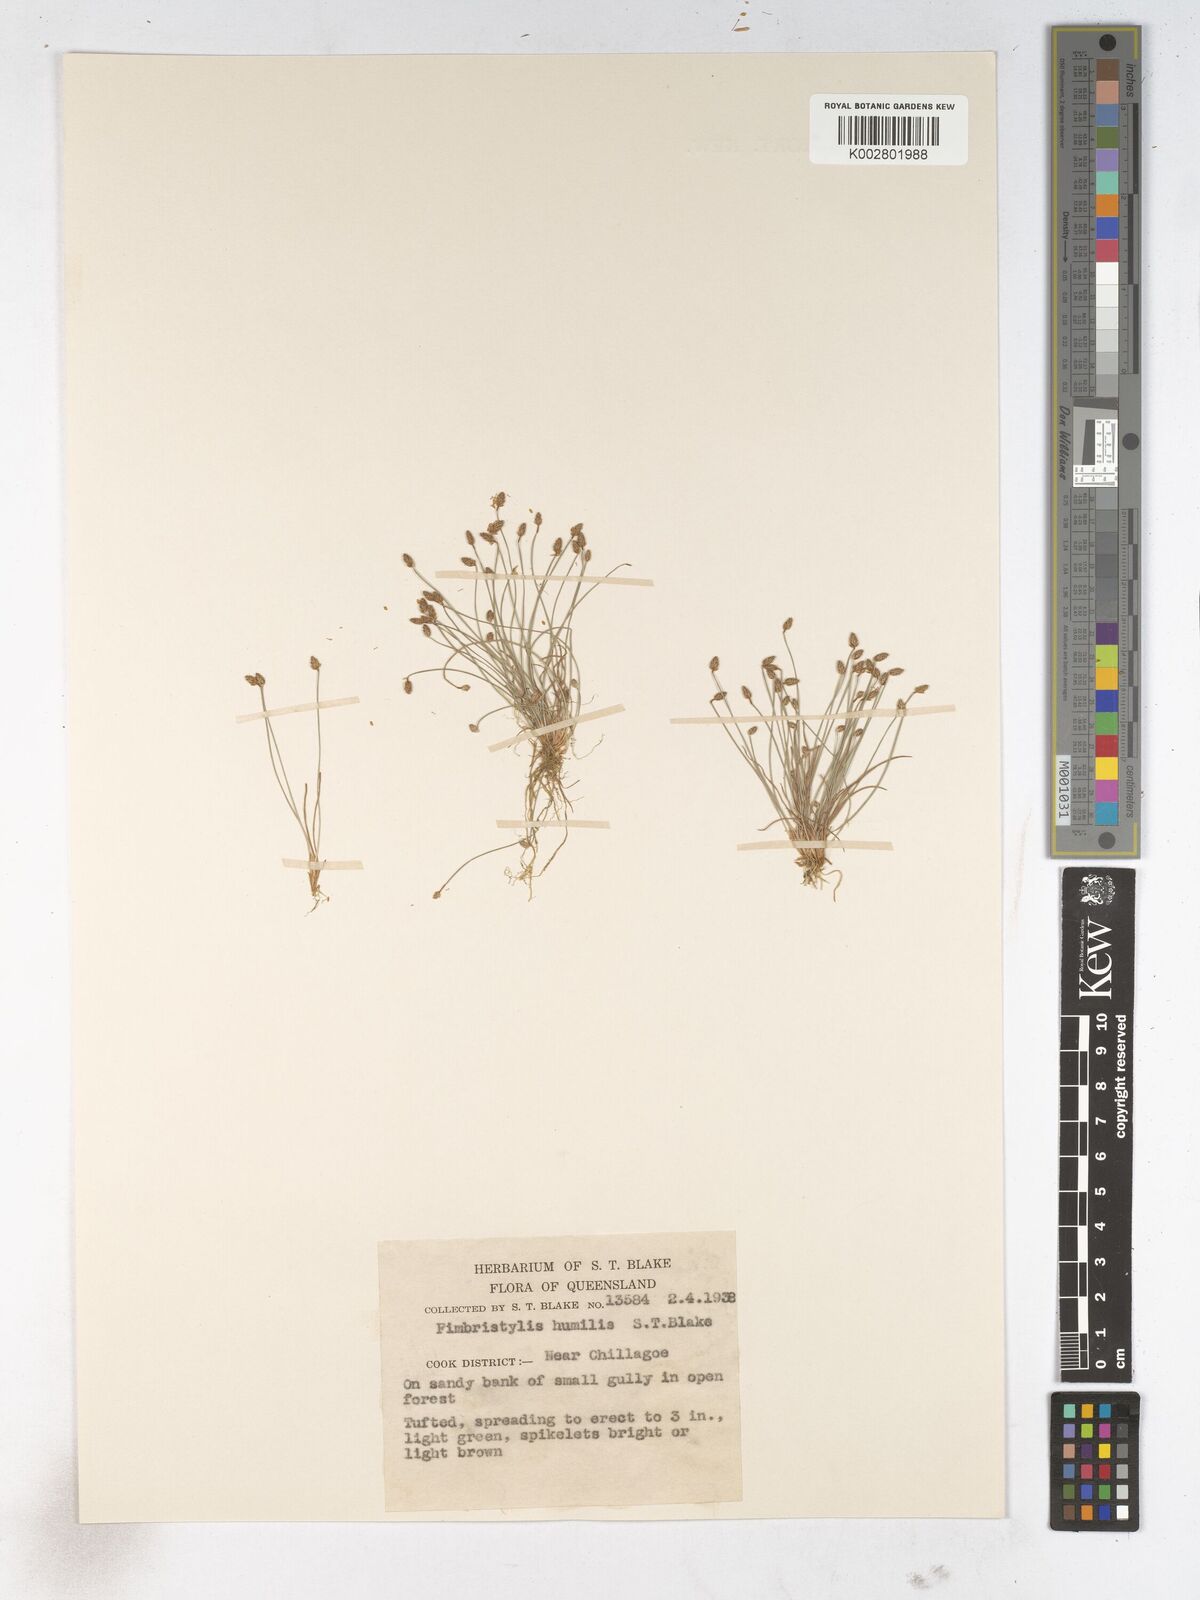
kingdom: Plantae
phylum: Tracheophyta
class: Liliopsida
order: Poales
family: Cyperaceae
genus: Fimbristylis
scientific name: Fimbristylis nuda
